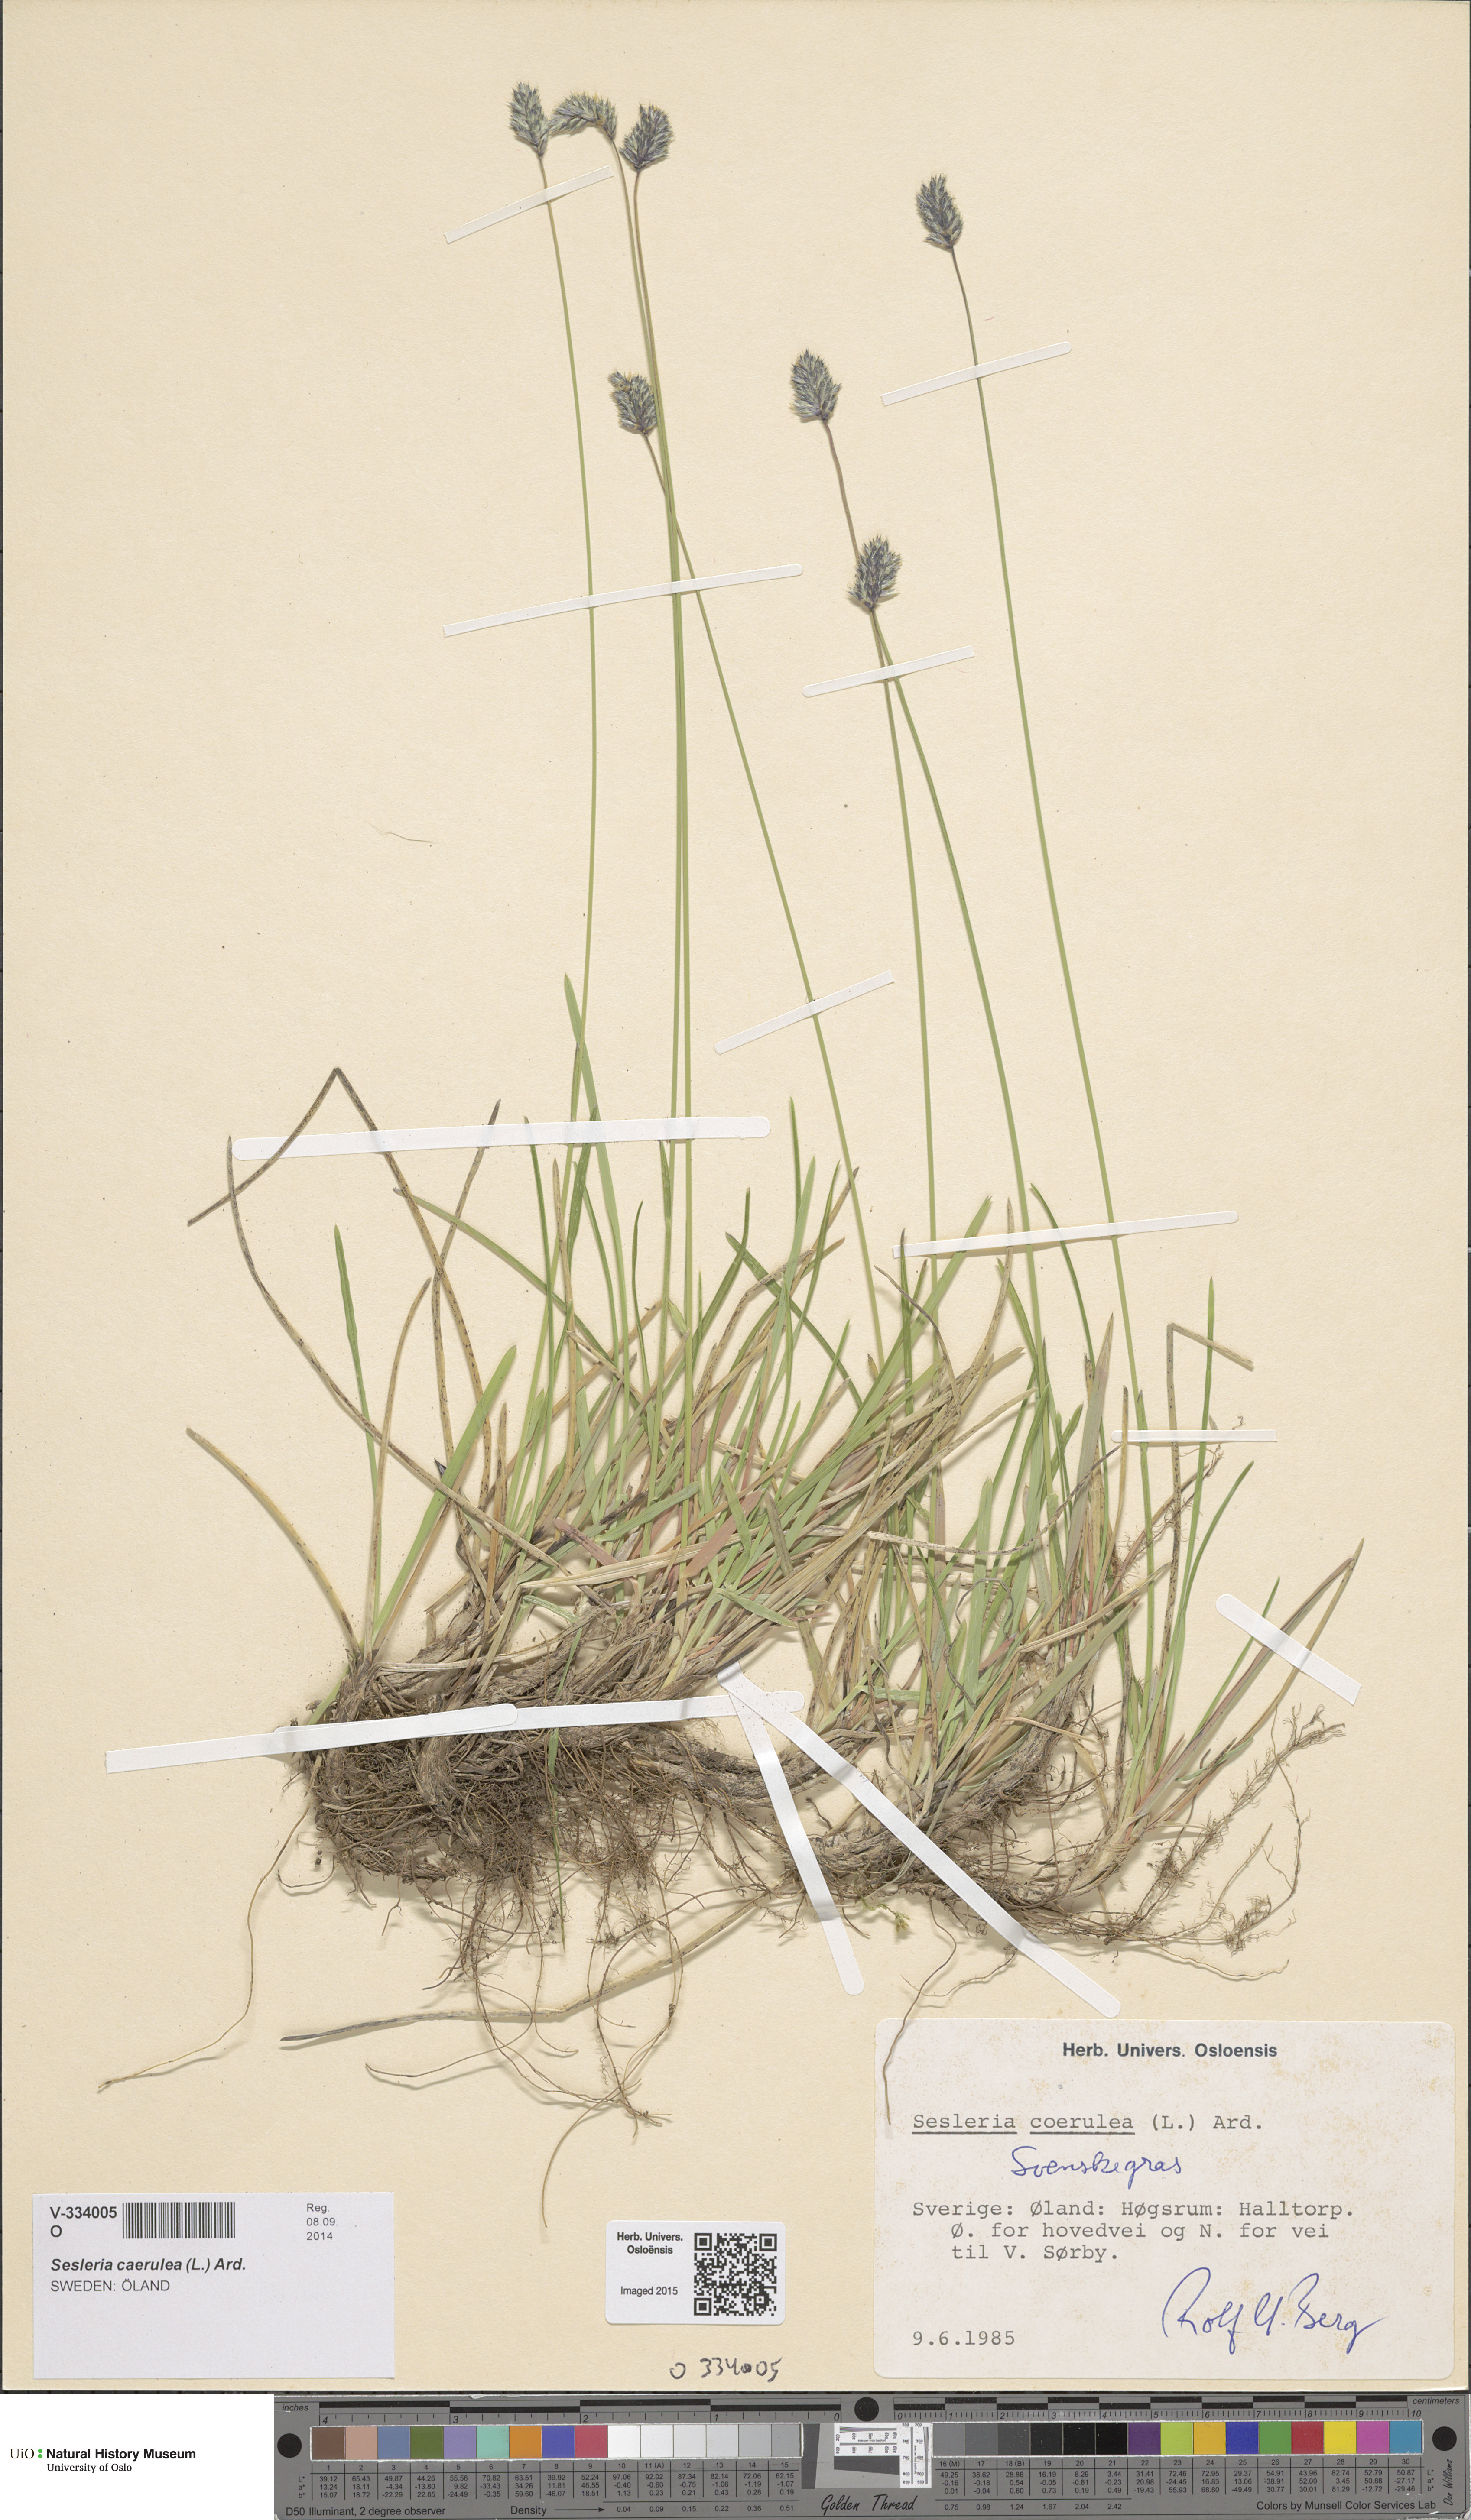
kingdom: Plantae
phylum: Tracheophyta
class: Liliopsida
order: Poales
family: Poaceae
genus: Sesleria
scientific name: Sesleria uliginosa
